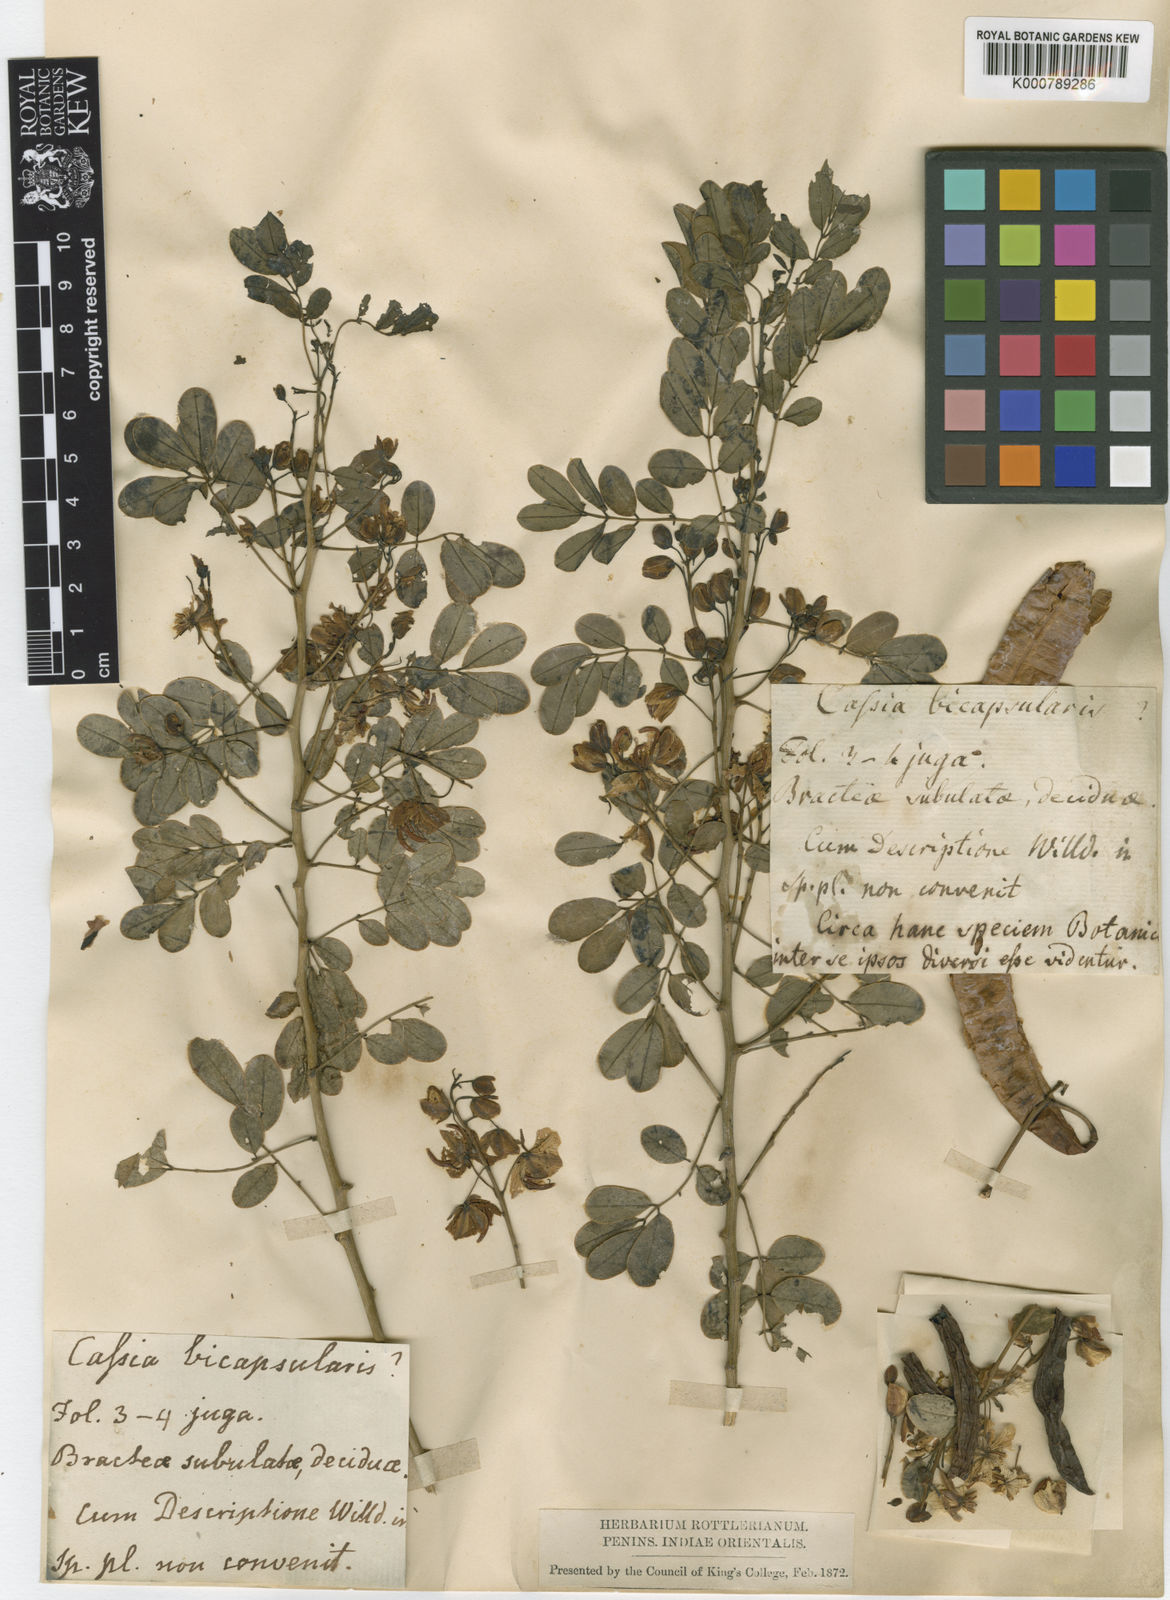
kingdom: Plantae
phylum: Tracheophyta
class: Magnoliopsida
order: Fabales
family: Fabaceae
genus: Senna
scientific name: Senna pendula
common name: Easter cassia
